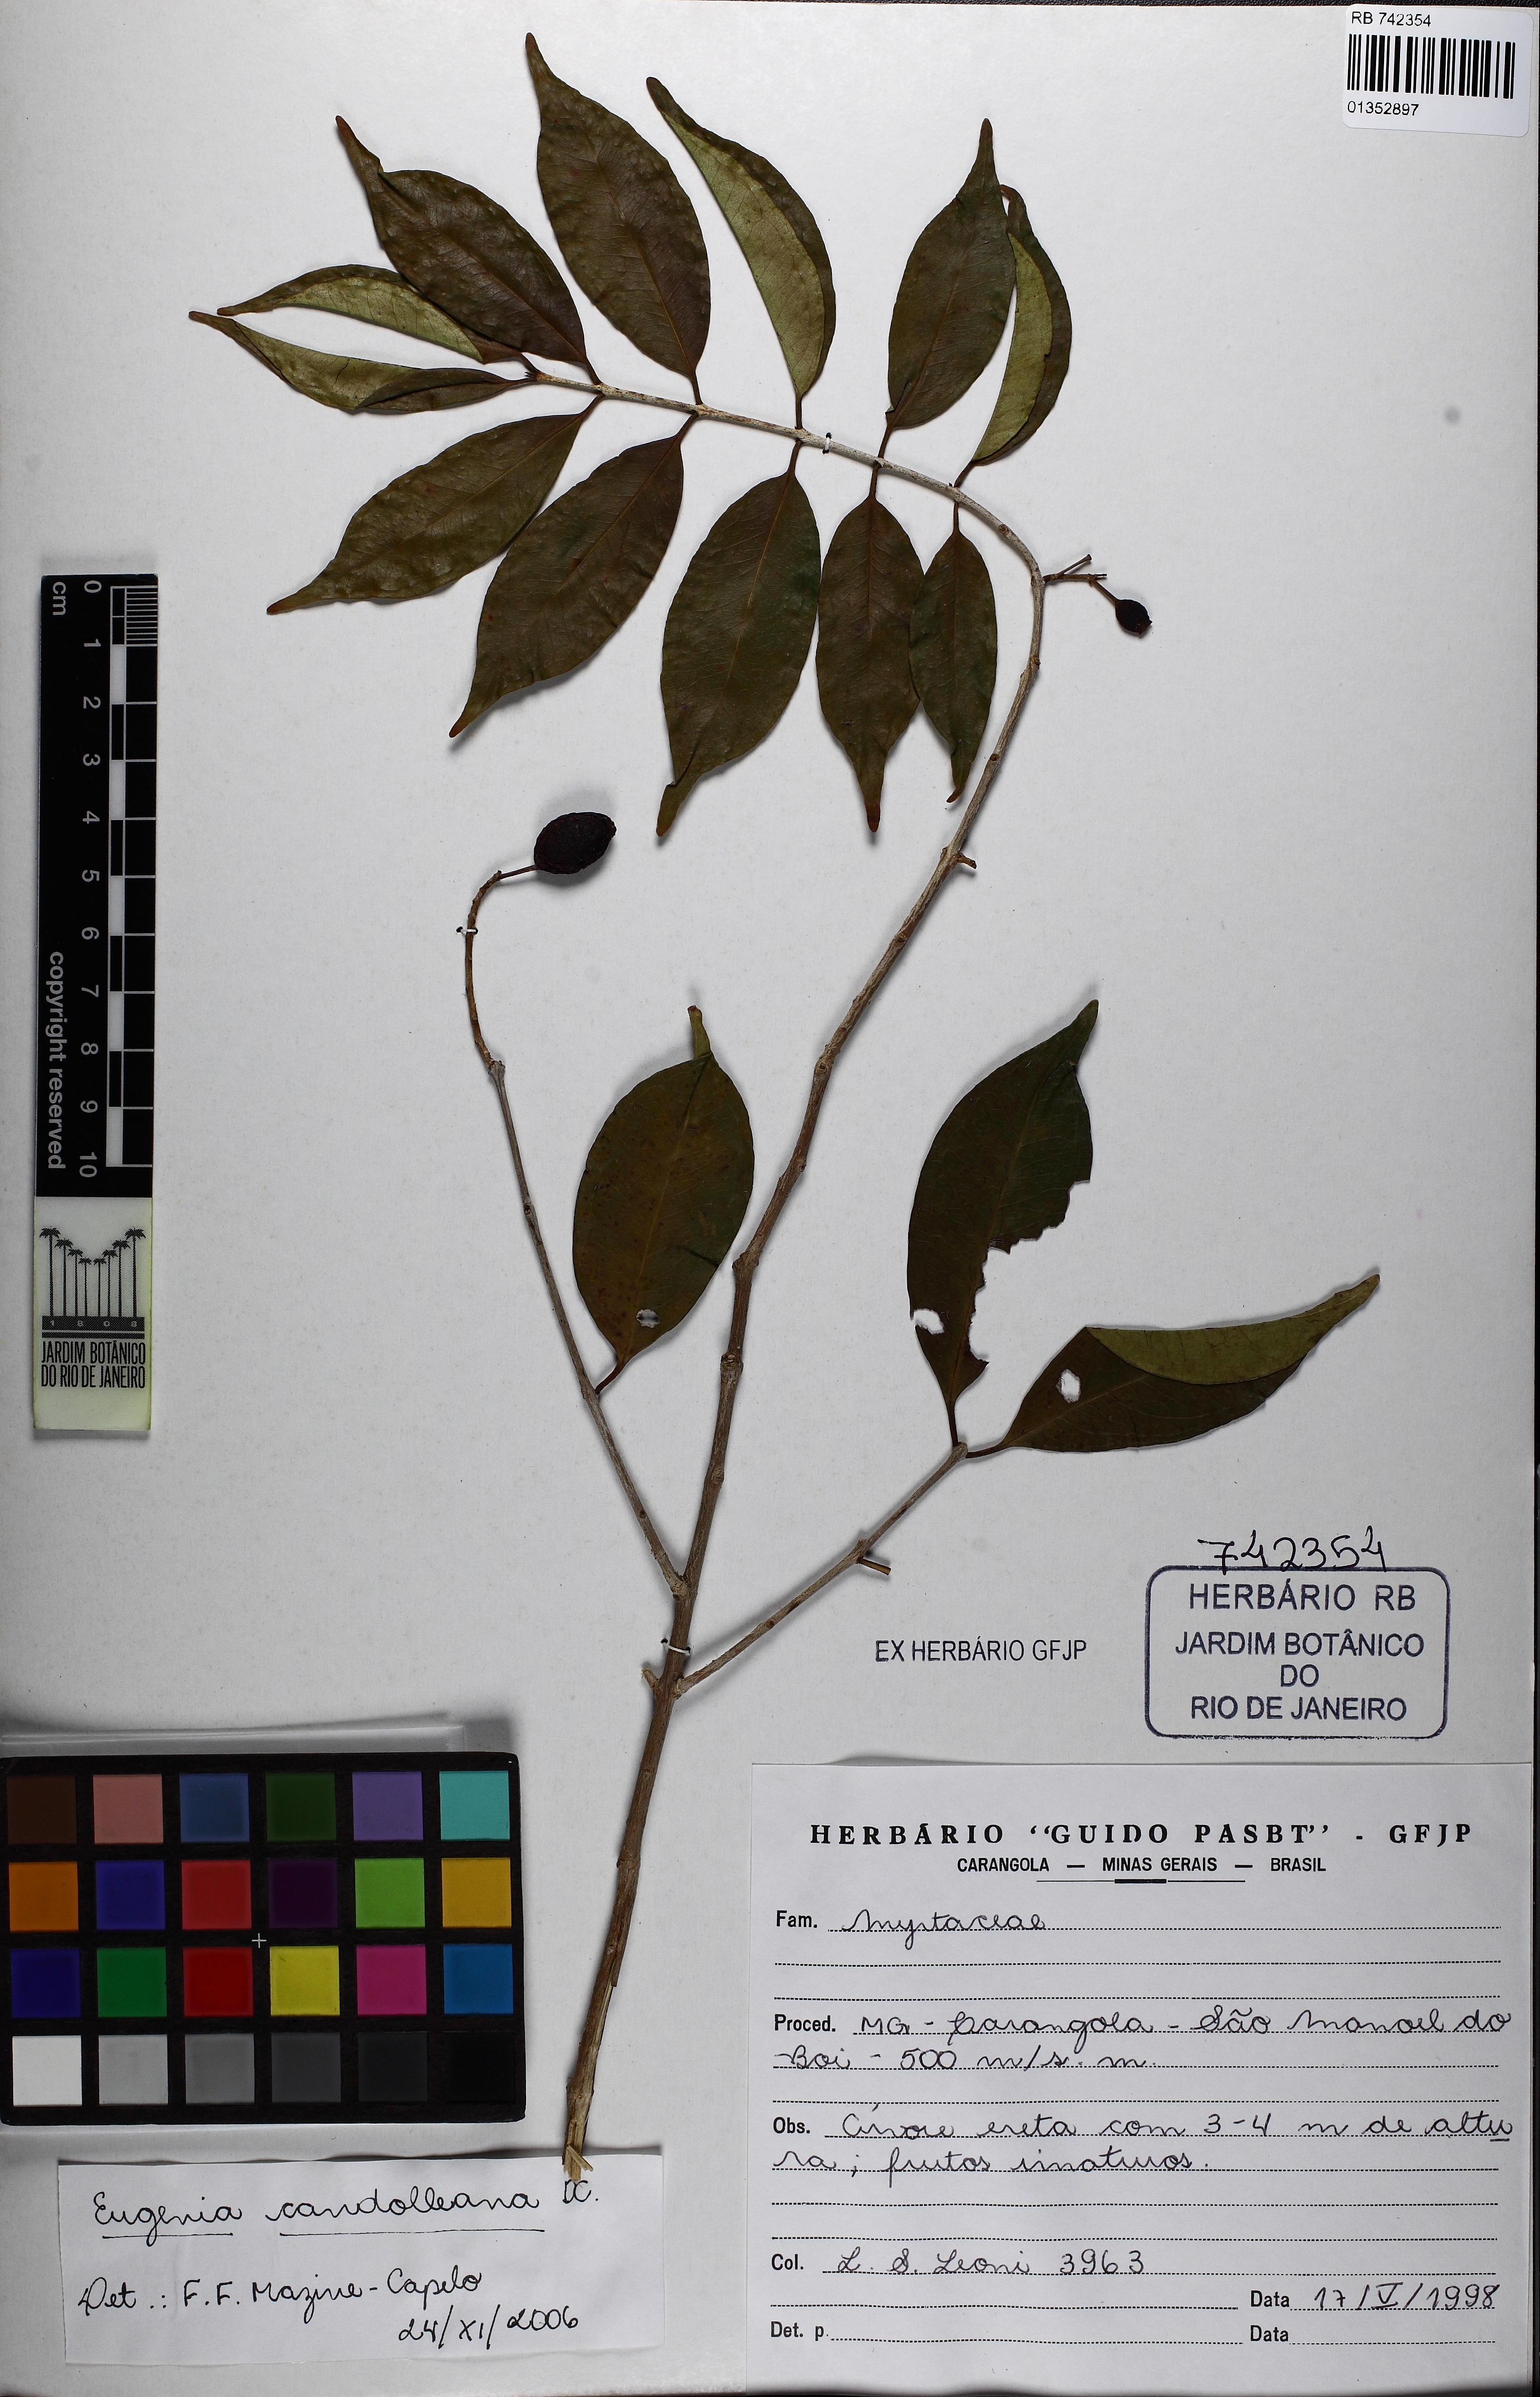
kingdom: Plantae
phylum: Tracheophyta
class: Magnoliopsida
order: Myrtales
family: Myrtaceae
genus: Eugenia
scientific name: Eugenia candolleana
